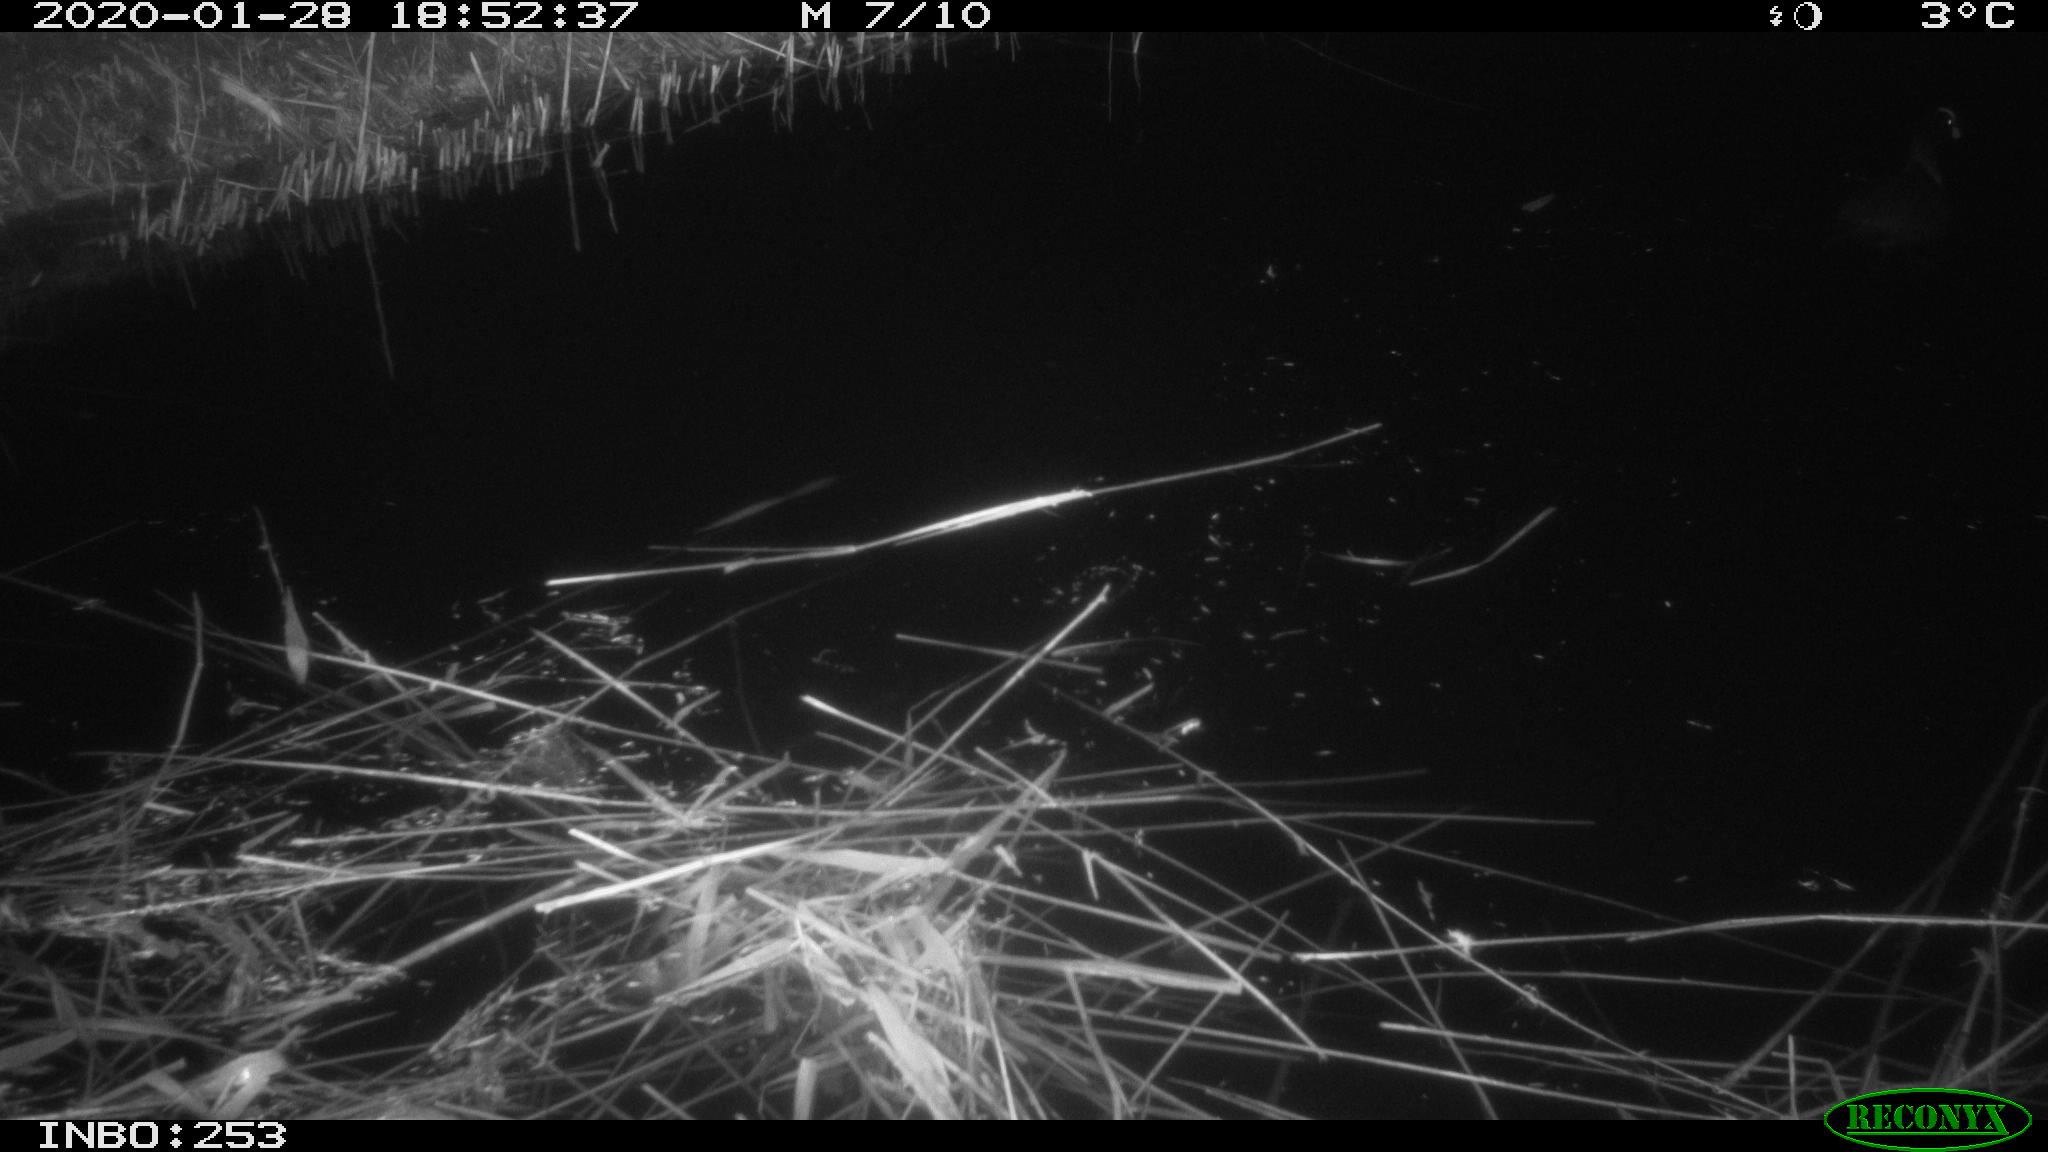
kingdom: Animalia
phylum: Chordata
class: Aves
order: Gruiformes
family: Rallidae
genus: Fulica
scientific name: Fulica atra
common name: Eurasian coot
